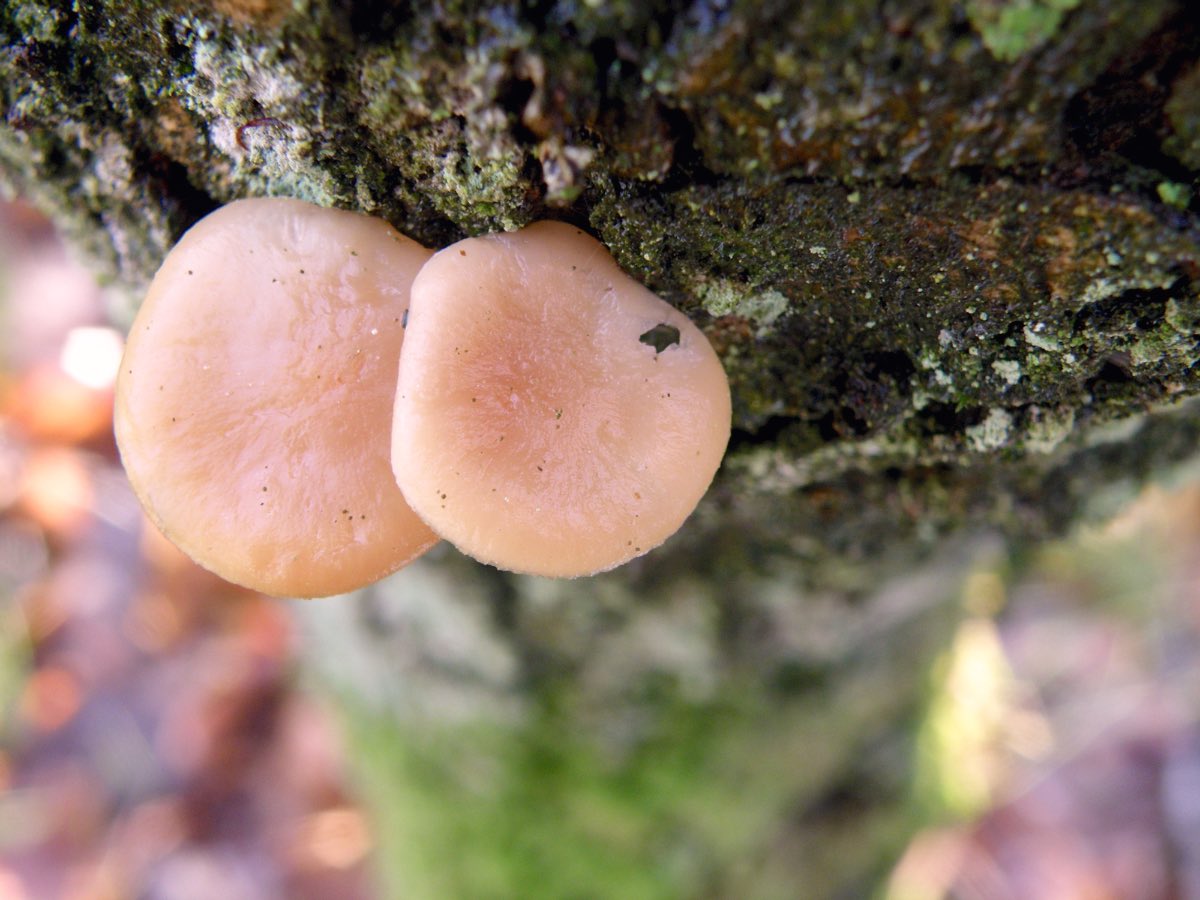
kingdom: Fungi
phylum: Basidiomycota
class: Agaricomycetes
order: Agaricales
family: Tricholomataceae
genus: Clitocybe
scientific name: Clitocybe
